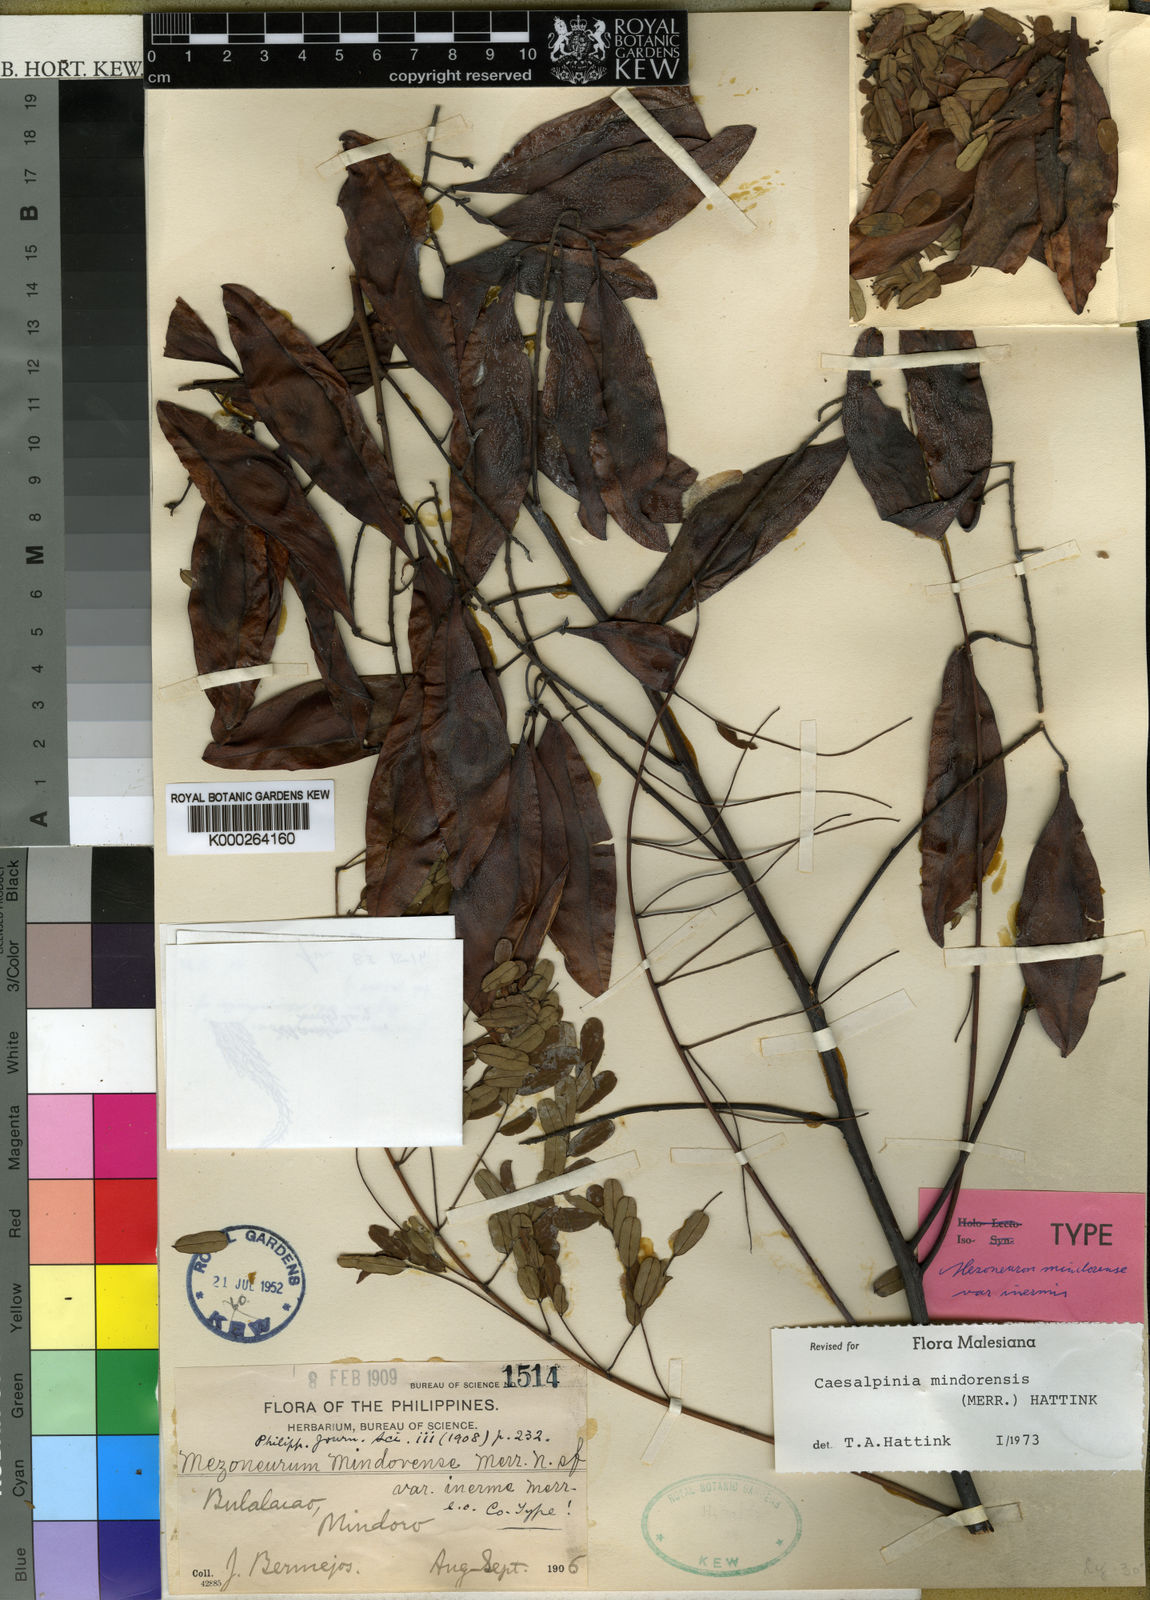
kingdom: Plantae
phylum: Tracheophyta
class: Magnoliopsida
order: Fabales
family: Fabaceae
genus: Caesalpinia
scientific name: Caesalpinia
